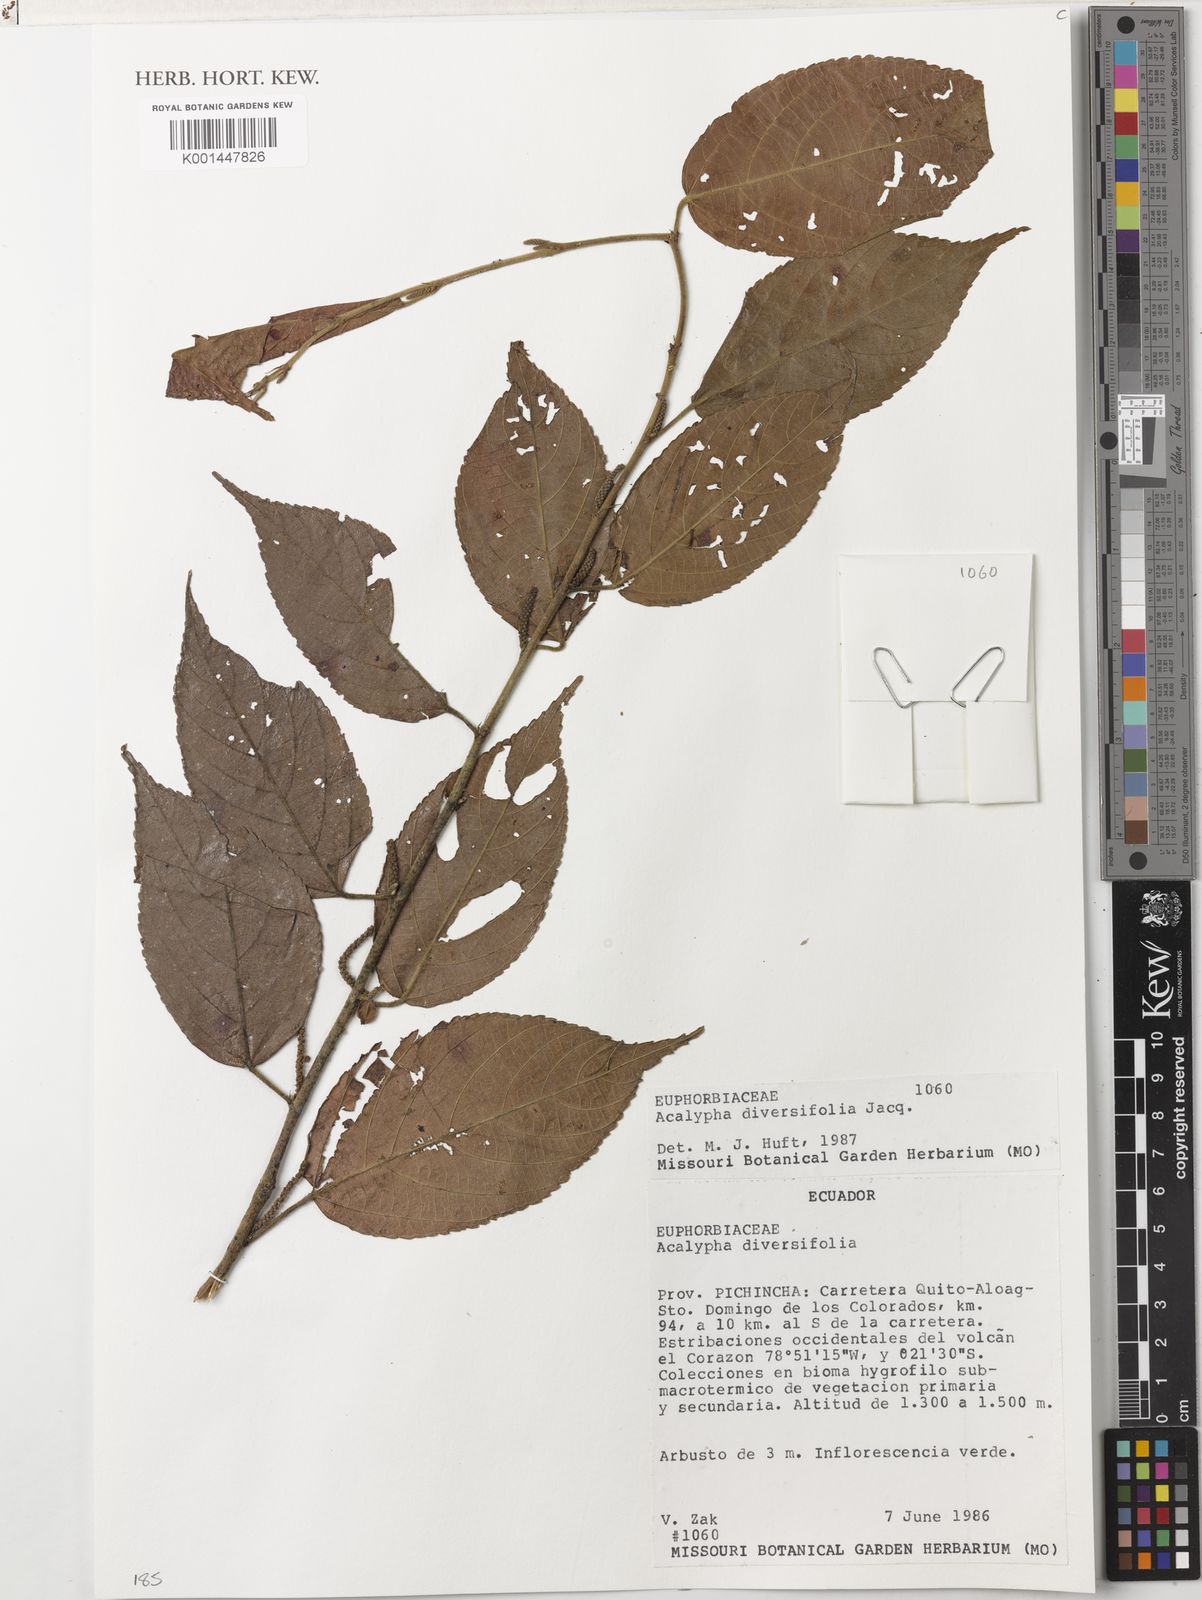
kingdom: Plantae
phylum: Tracheophyta
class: Magnoliopsida
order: Malpighiales
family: Euphorbiaceae
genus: Acalypha
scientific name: Acalypha diversifolia
